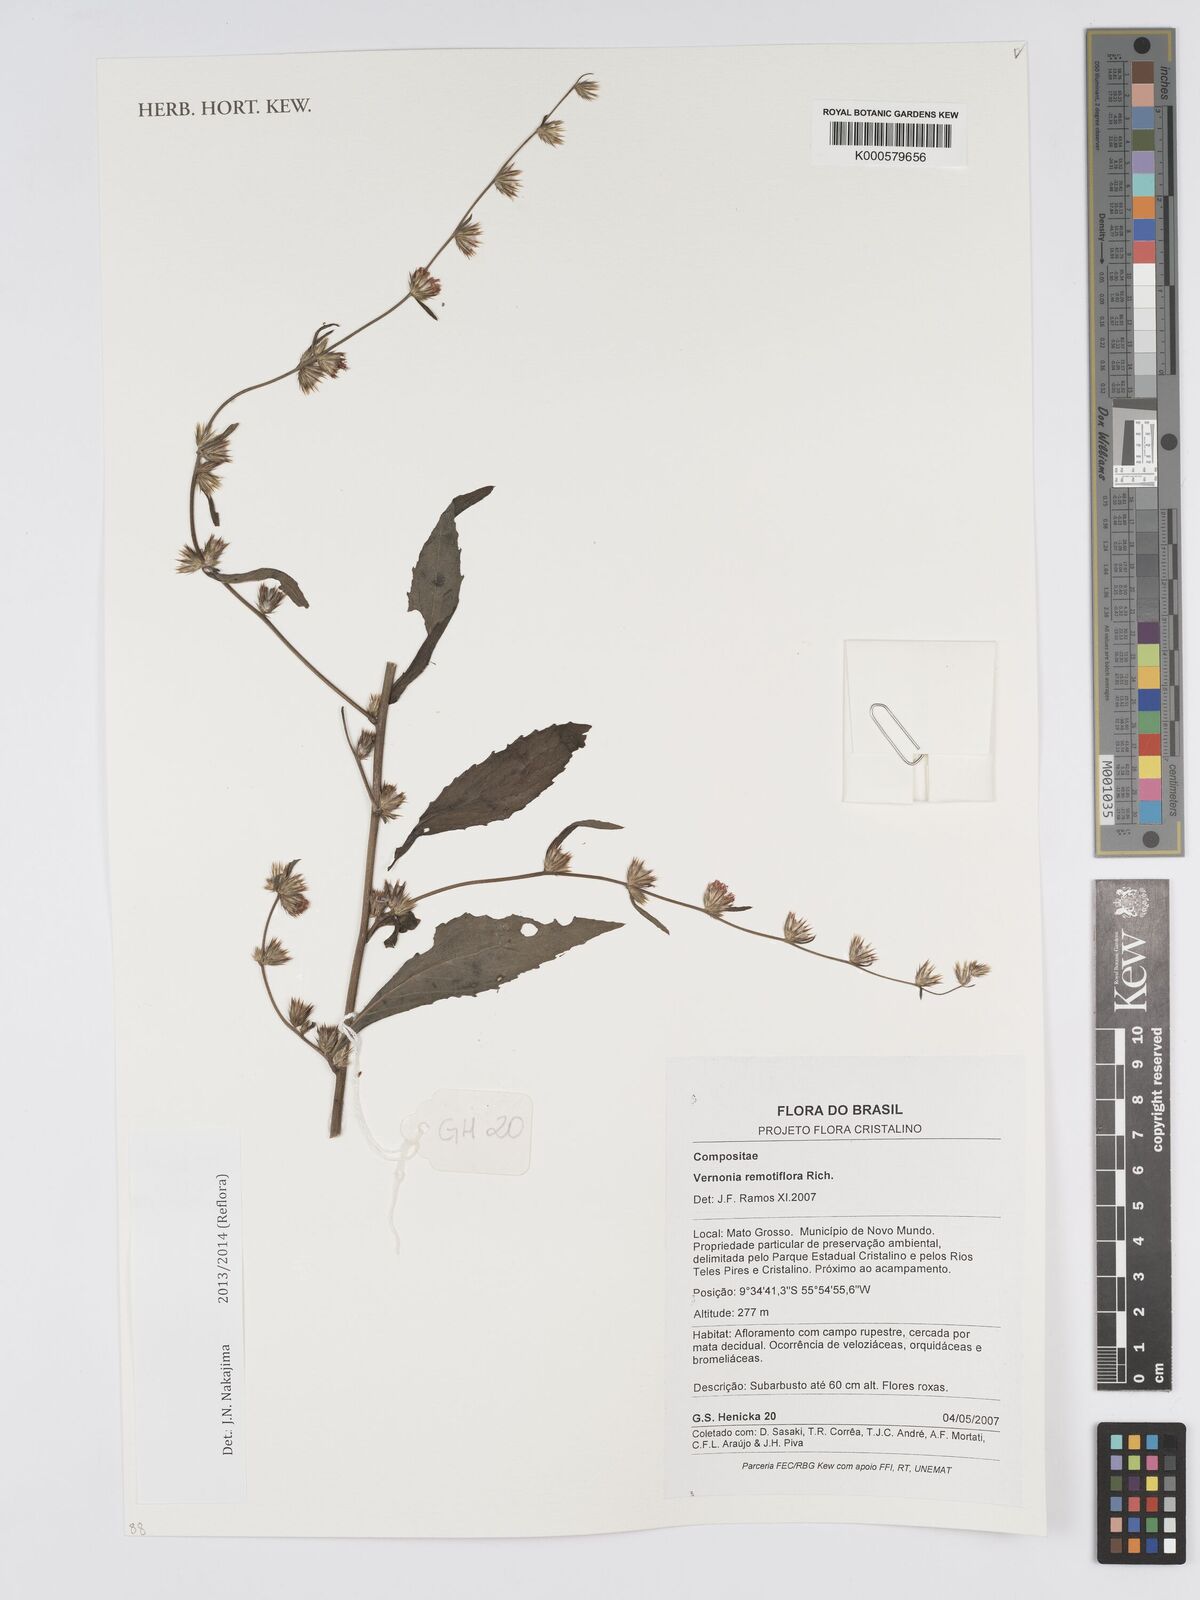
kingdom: Plantae
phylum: Tracheophyta
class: Magnoliopsida
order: Asterales
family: Asteraceae
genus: Lepidaploa
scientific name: Lepidaploa remotiflora
